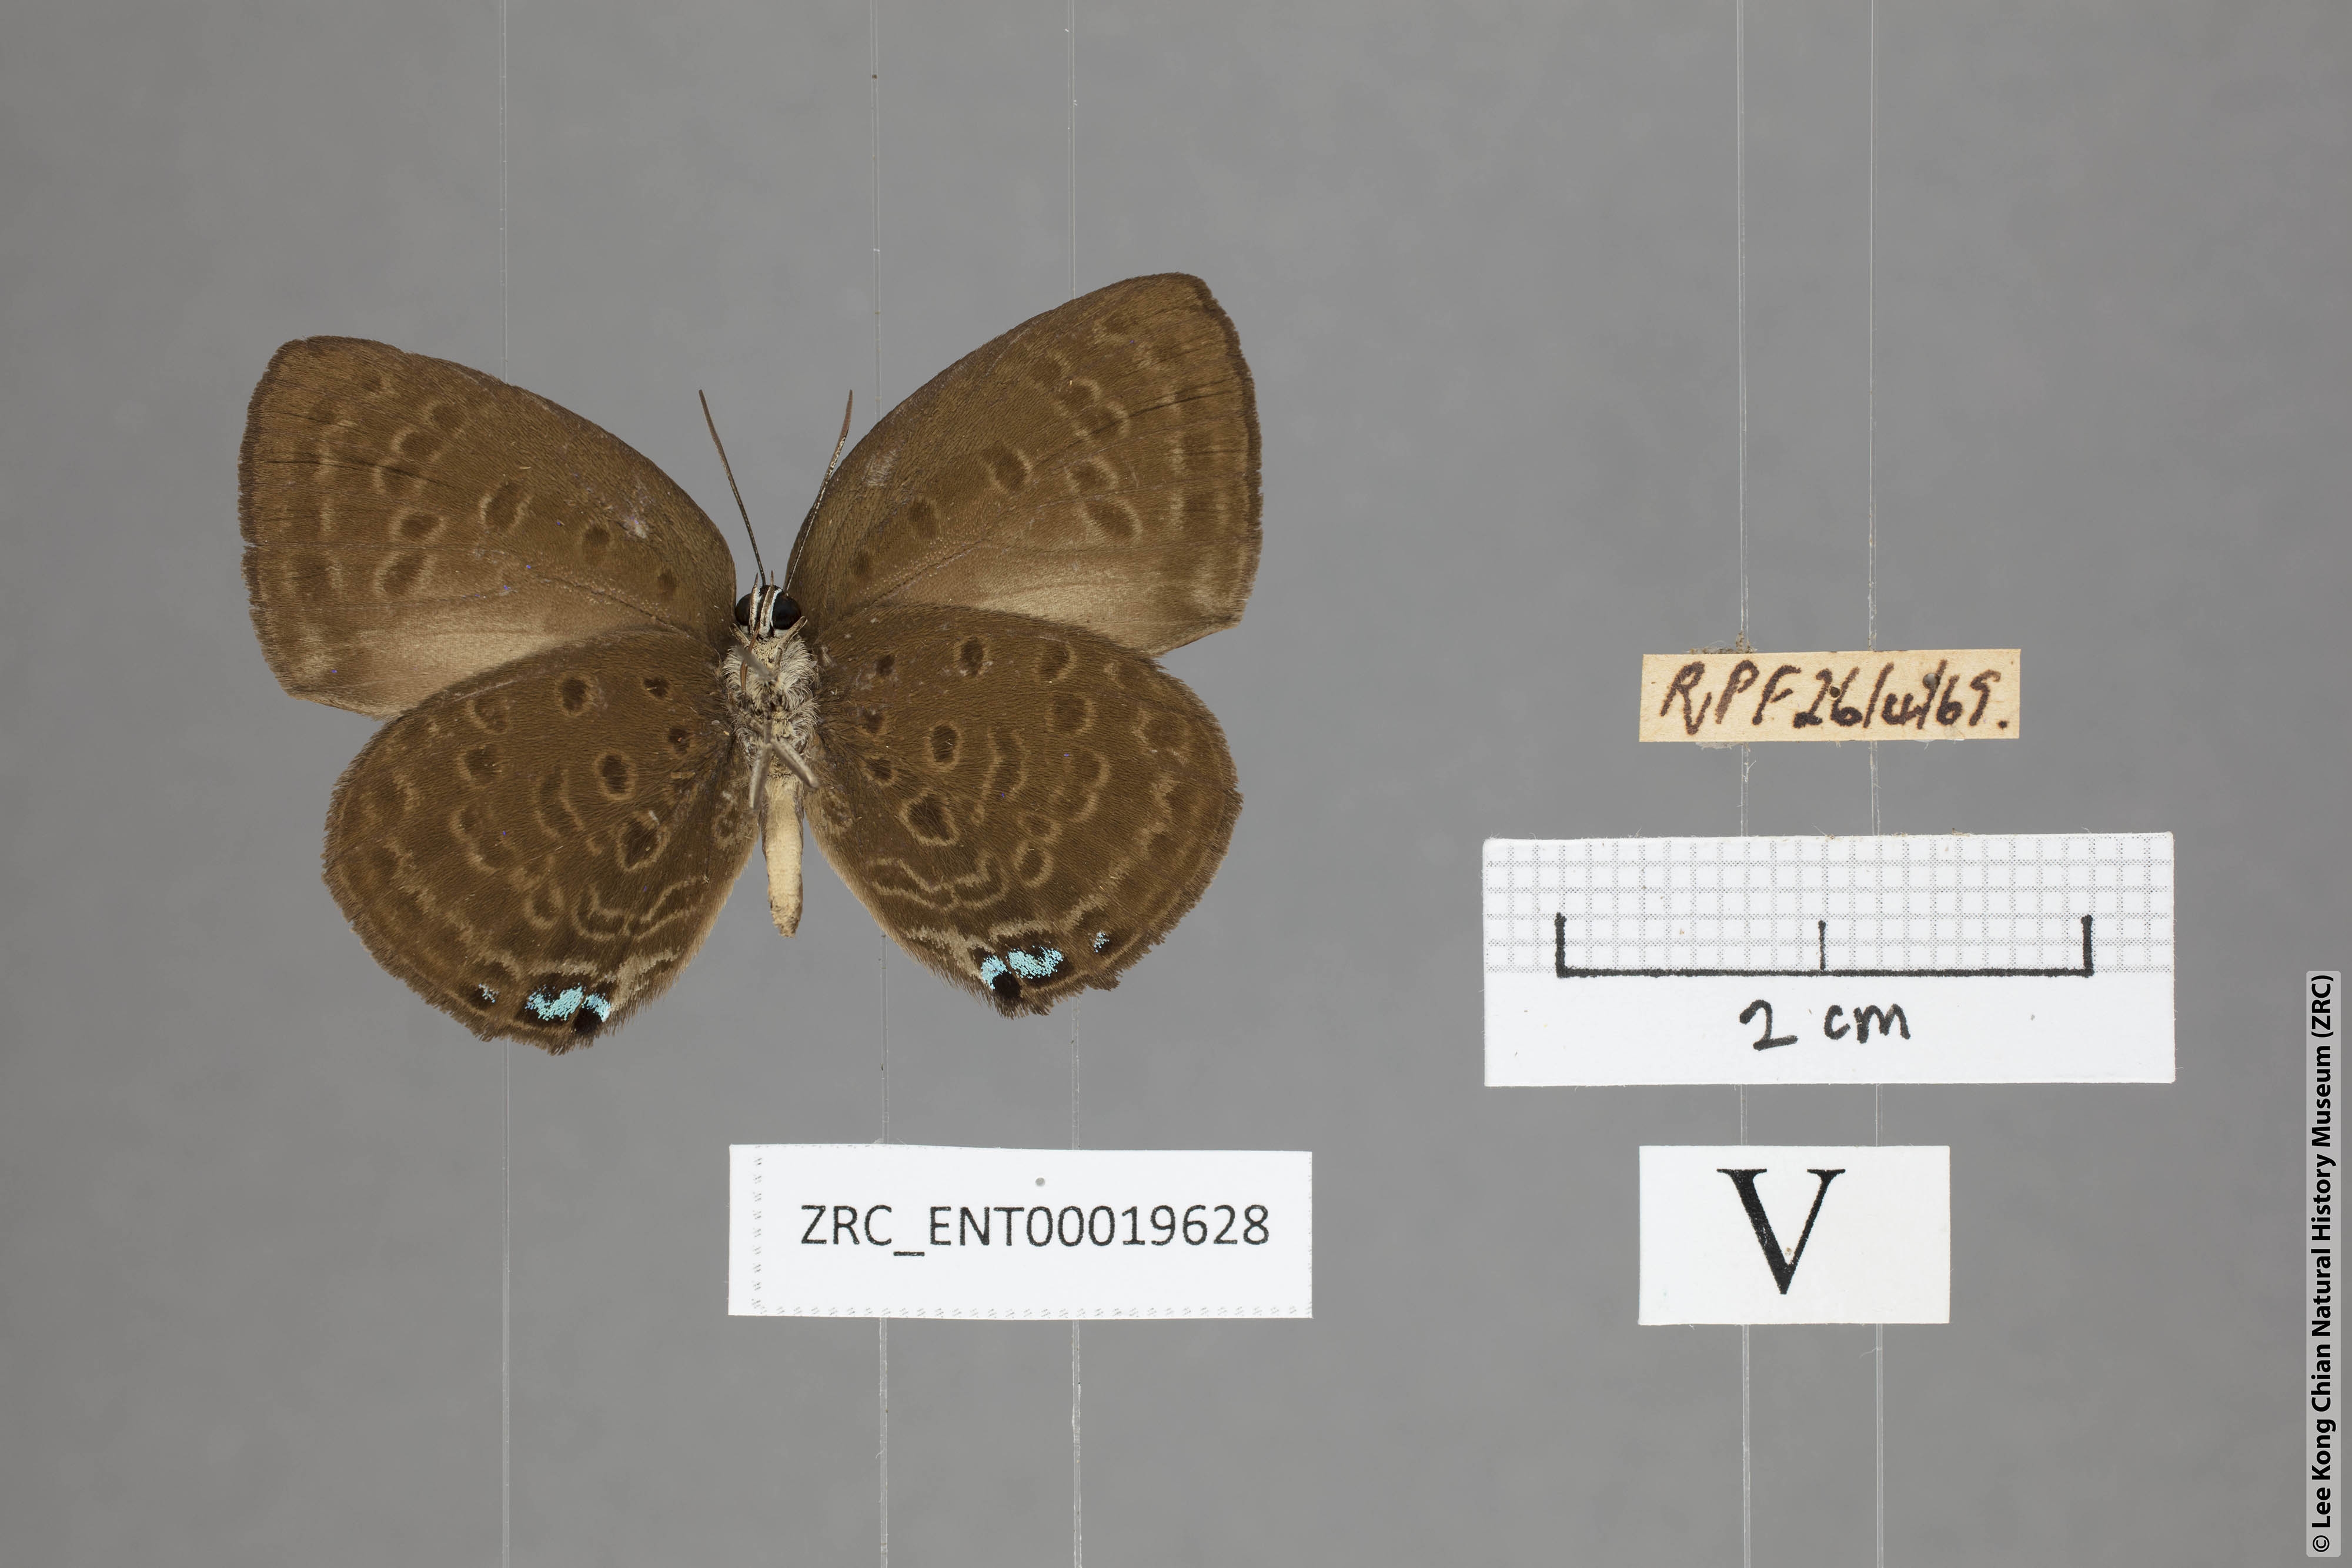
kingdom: Animalia
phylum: Arthropoda
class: Insecta
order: Lepidoptera
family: Lycaenidae
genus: Arhopala
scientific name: Arhopala major
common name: Major yellow oakblue
